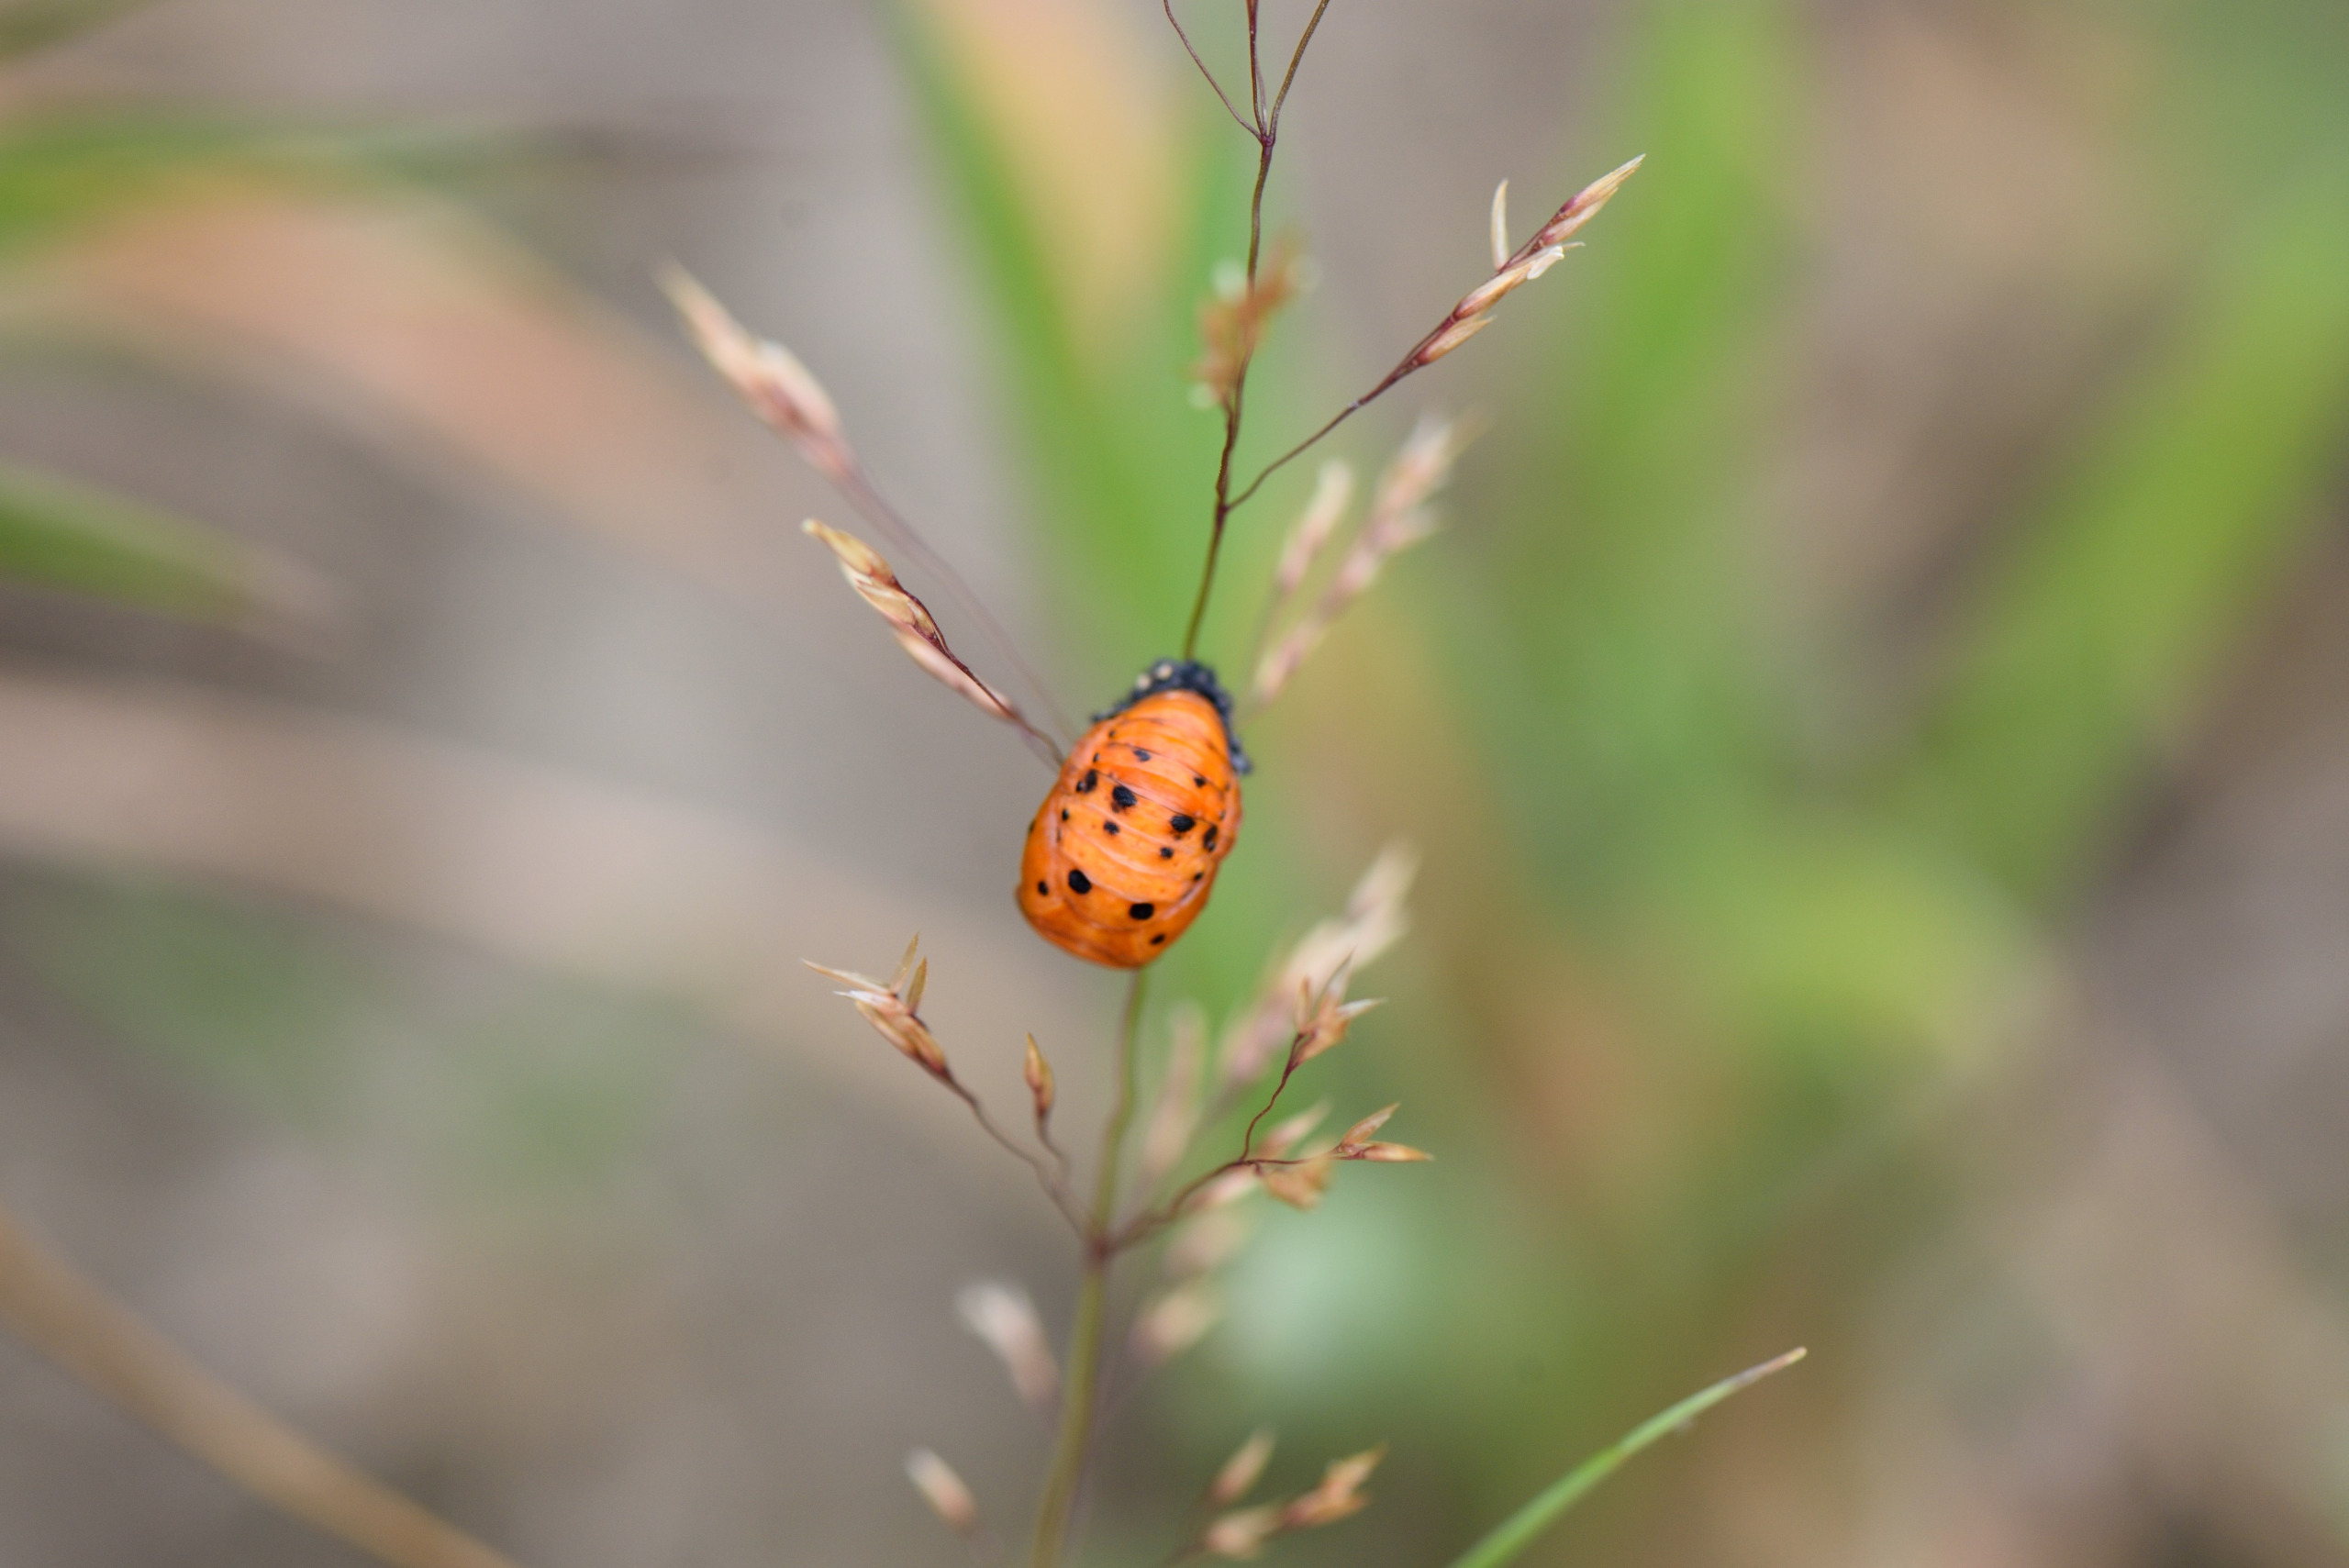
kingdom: Animalia
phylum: Arthropoda
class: Insecta
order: Coleoptera
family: Coccinellidae
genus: Coccinella
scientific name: Coccinella septempunctata
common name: Syvplettet mariehøne
